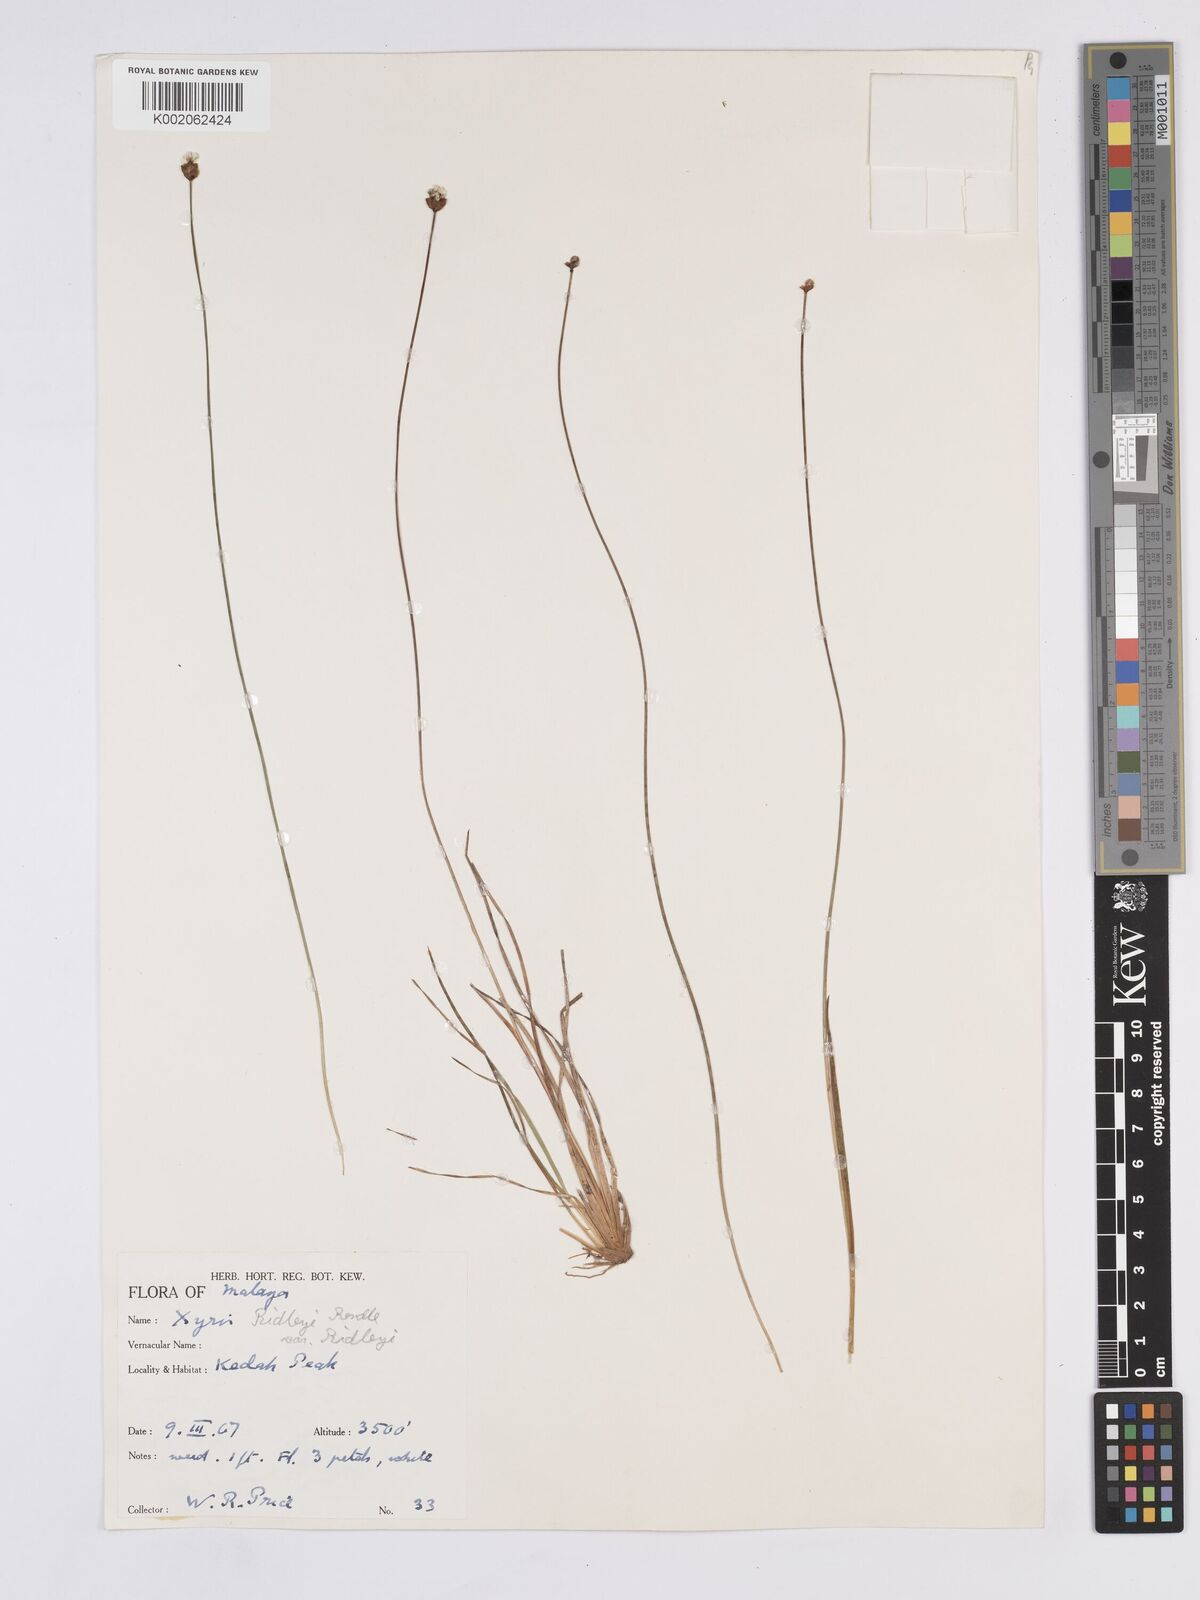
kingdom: Plantae
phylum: Tracheophyta
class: Liliopsida
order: Poales
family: Xyridaceae
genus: Xyris
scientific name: Xyris bancana
